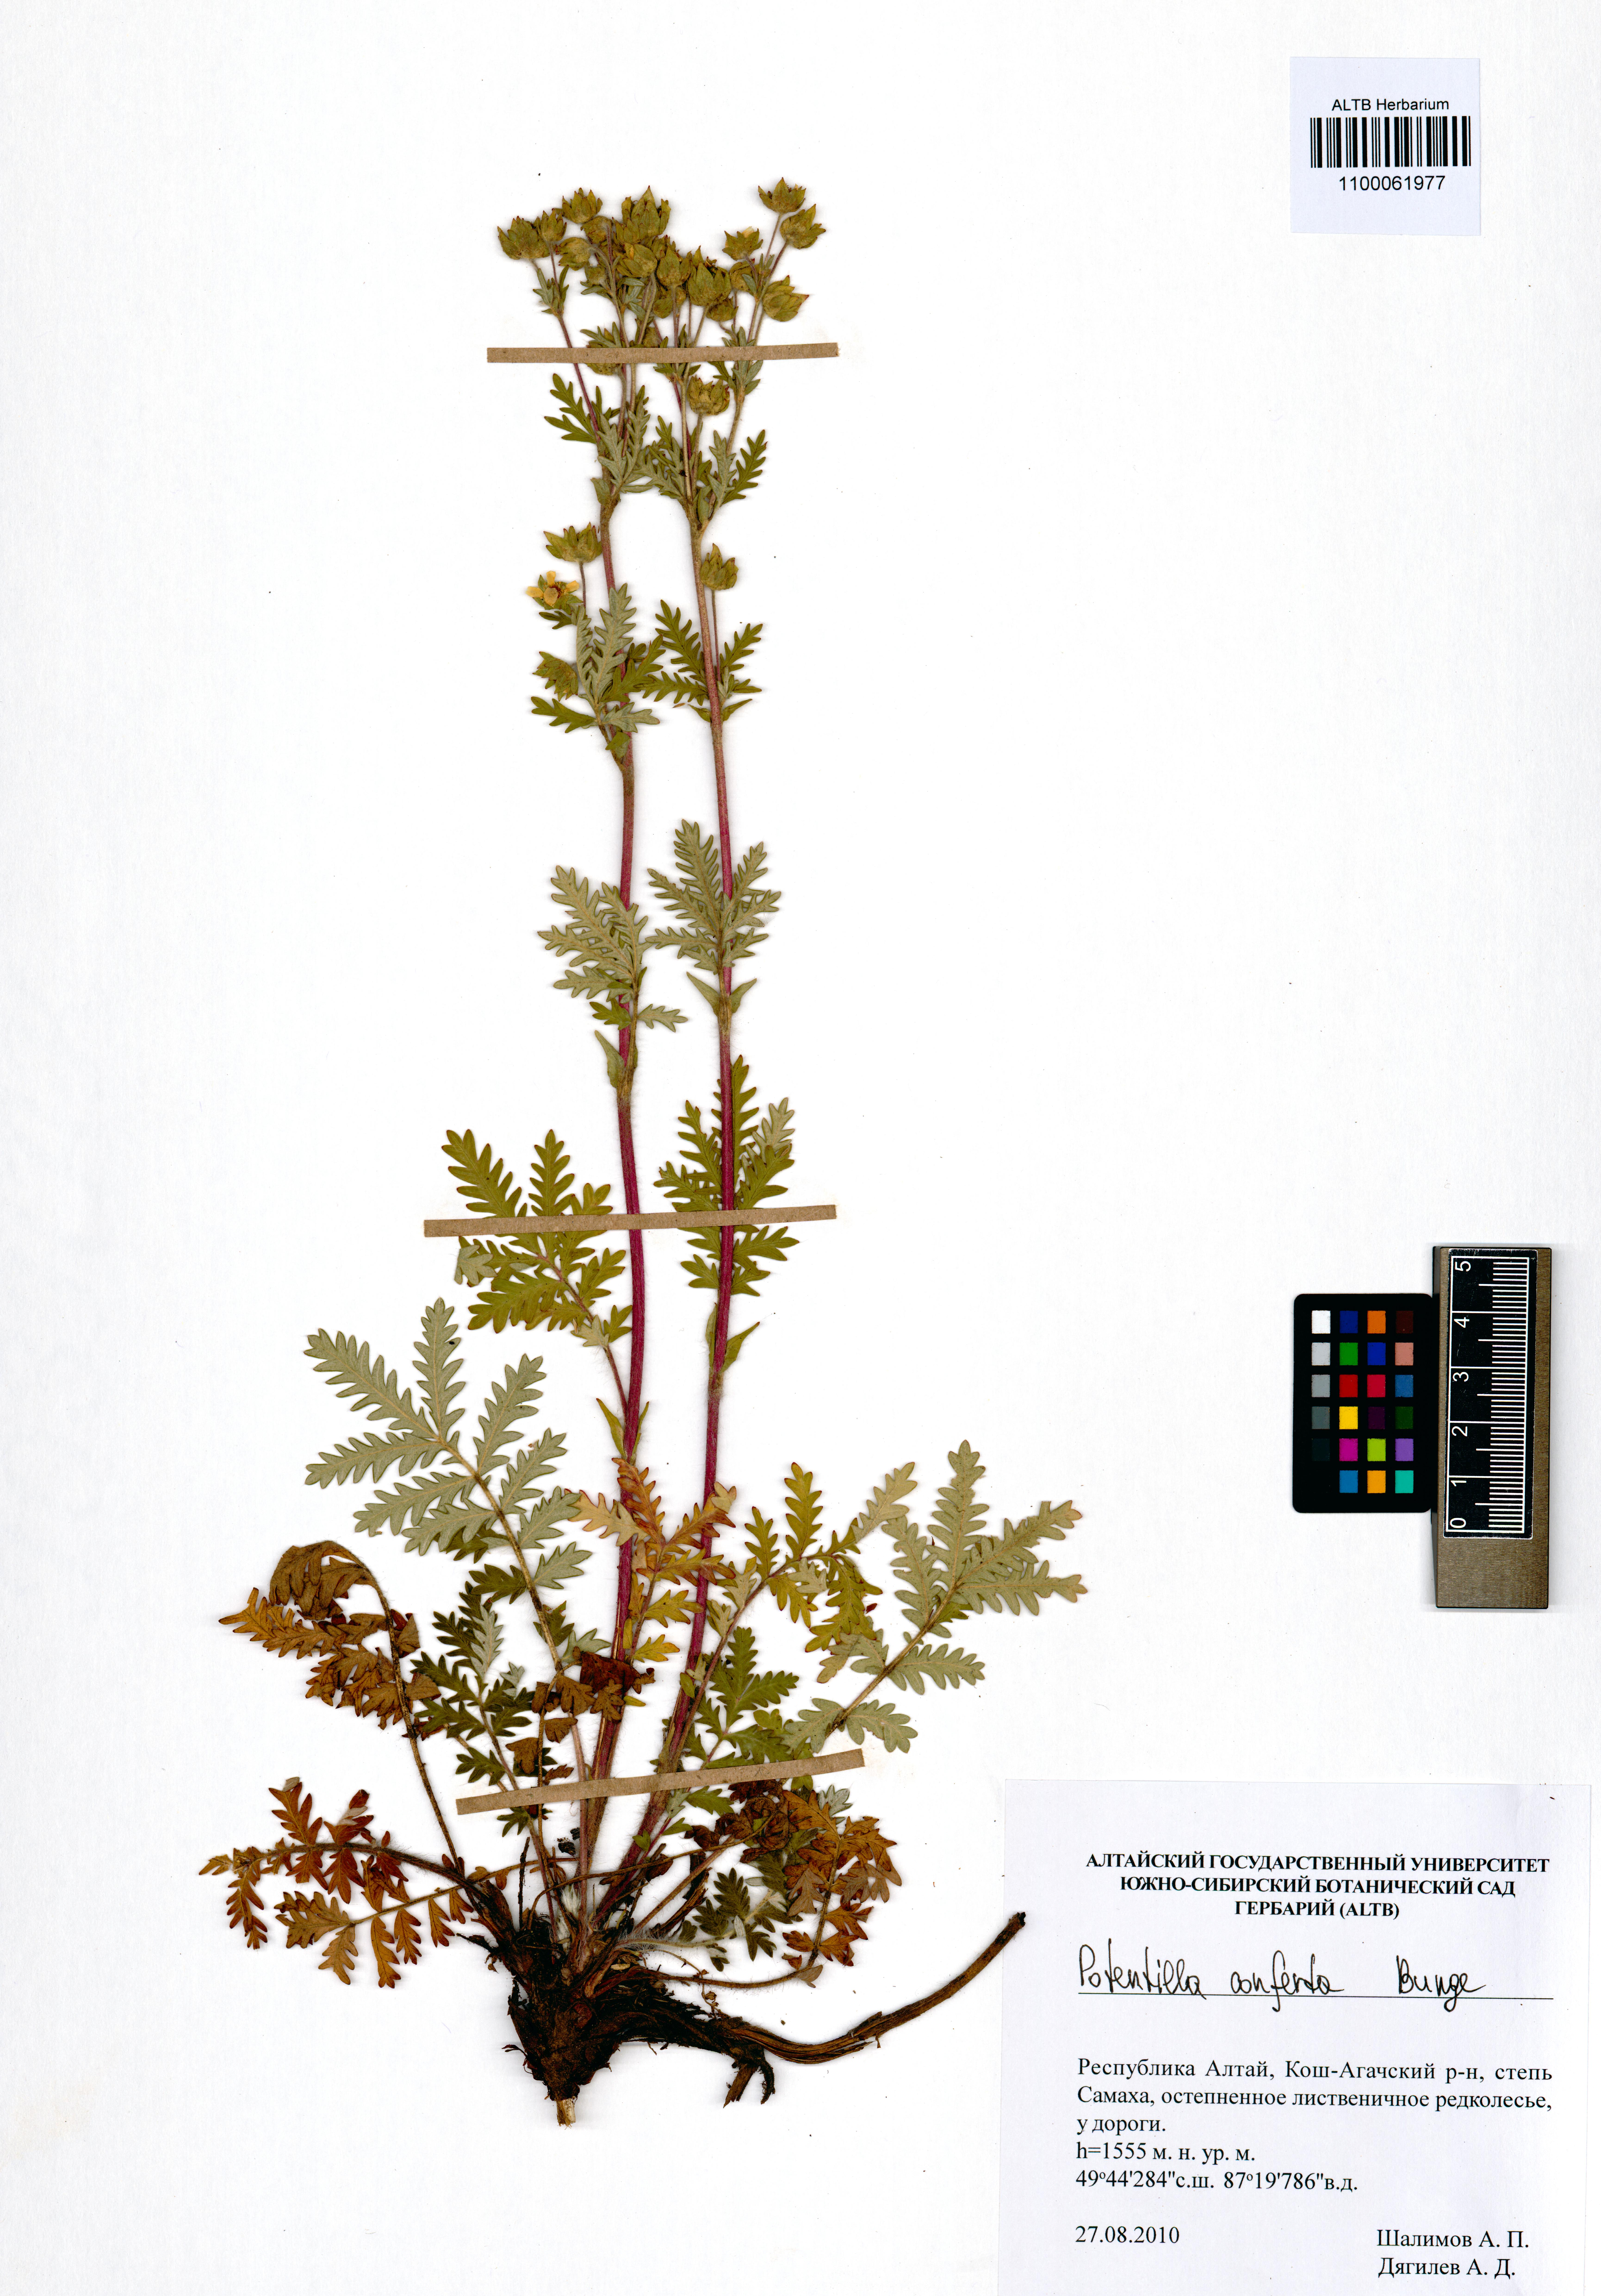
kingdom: Plantae
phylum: Tracheophyta
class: Magnoliopsida
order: Rosales
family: Rosaceae
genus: Potentilla
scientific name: Potentilla conferta
